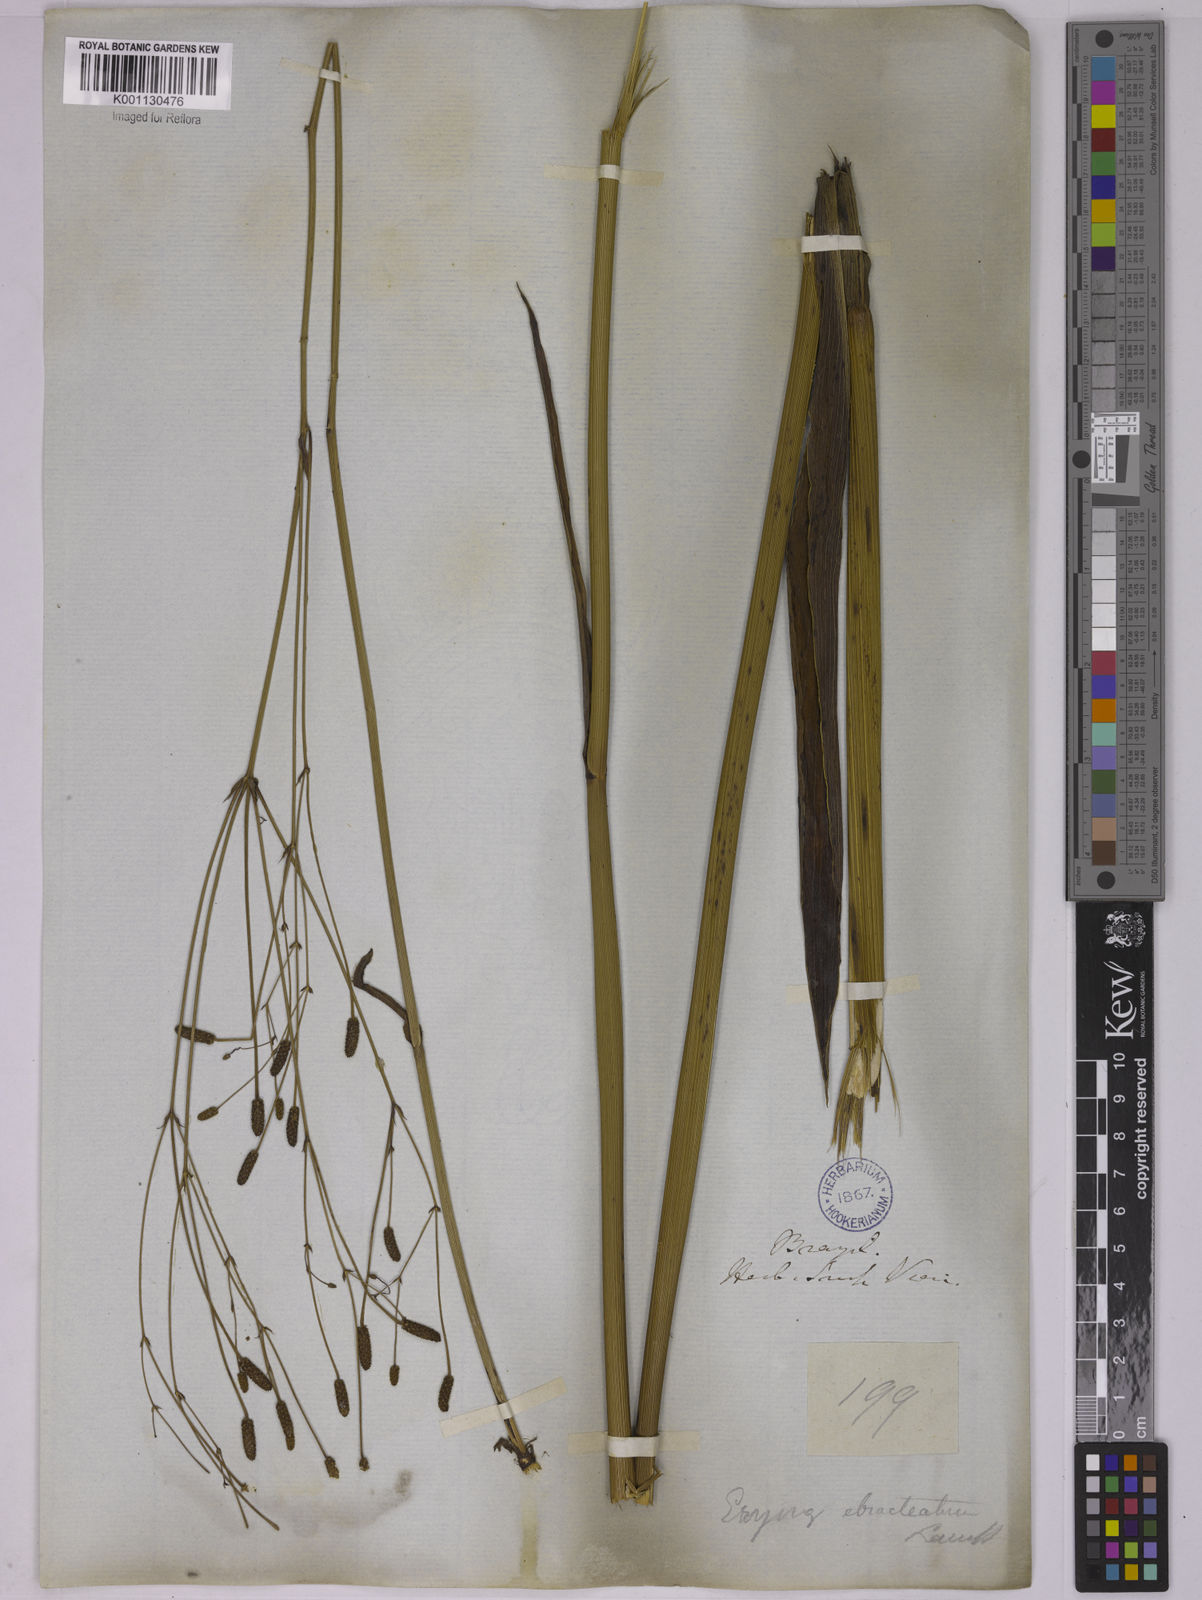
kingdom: Plantae
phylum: Tracheophyta
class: Magnoliopsida
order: Apiales
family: Apiaceae
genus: Eryngium
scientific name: Eryngium ebracteatum
